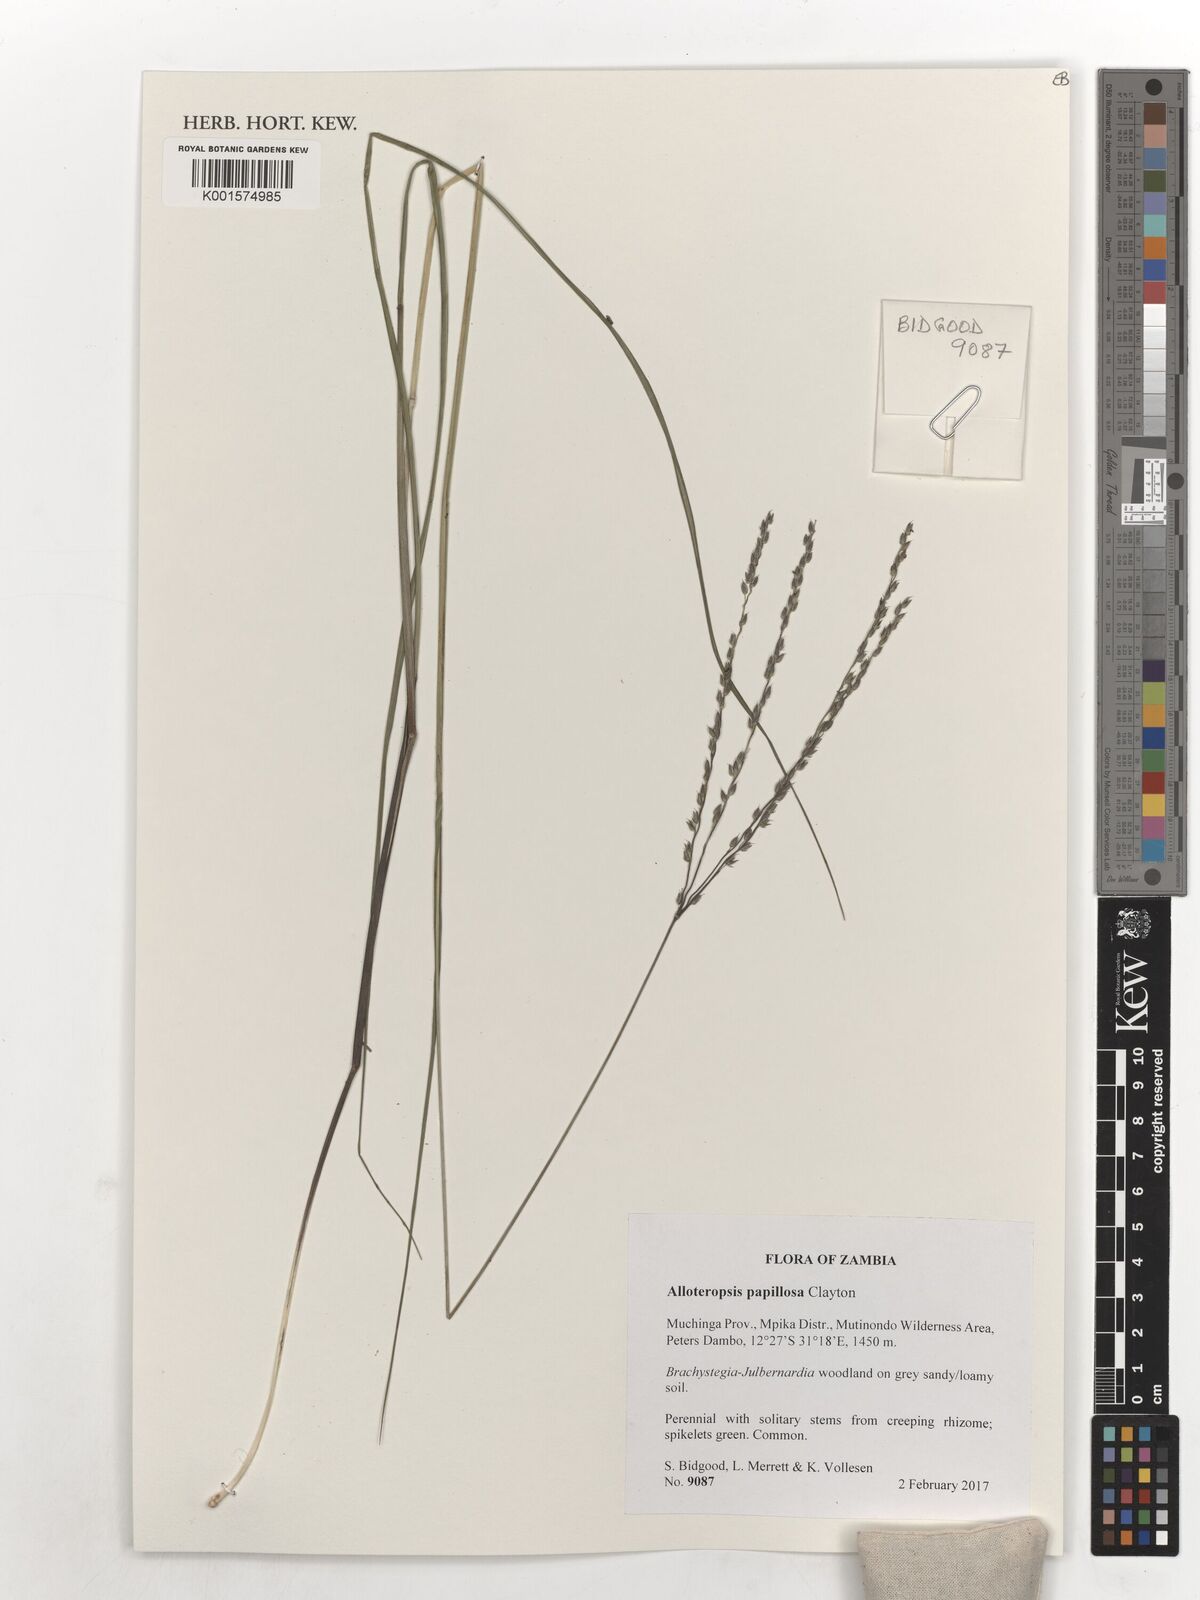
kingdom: Plantae
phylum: Tracheophyta
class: Liliopsida
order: Poales
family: Poaceae
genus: Alloteropsis
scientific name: Alloteropsis papillosa
